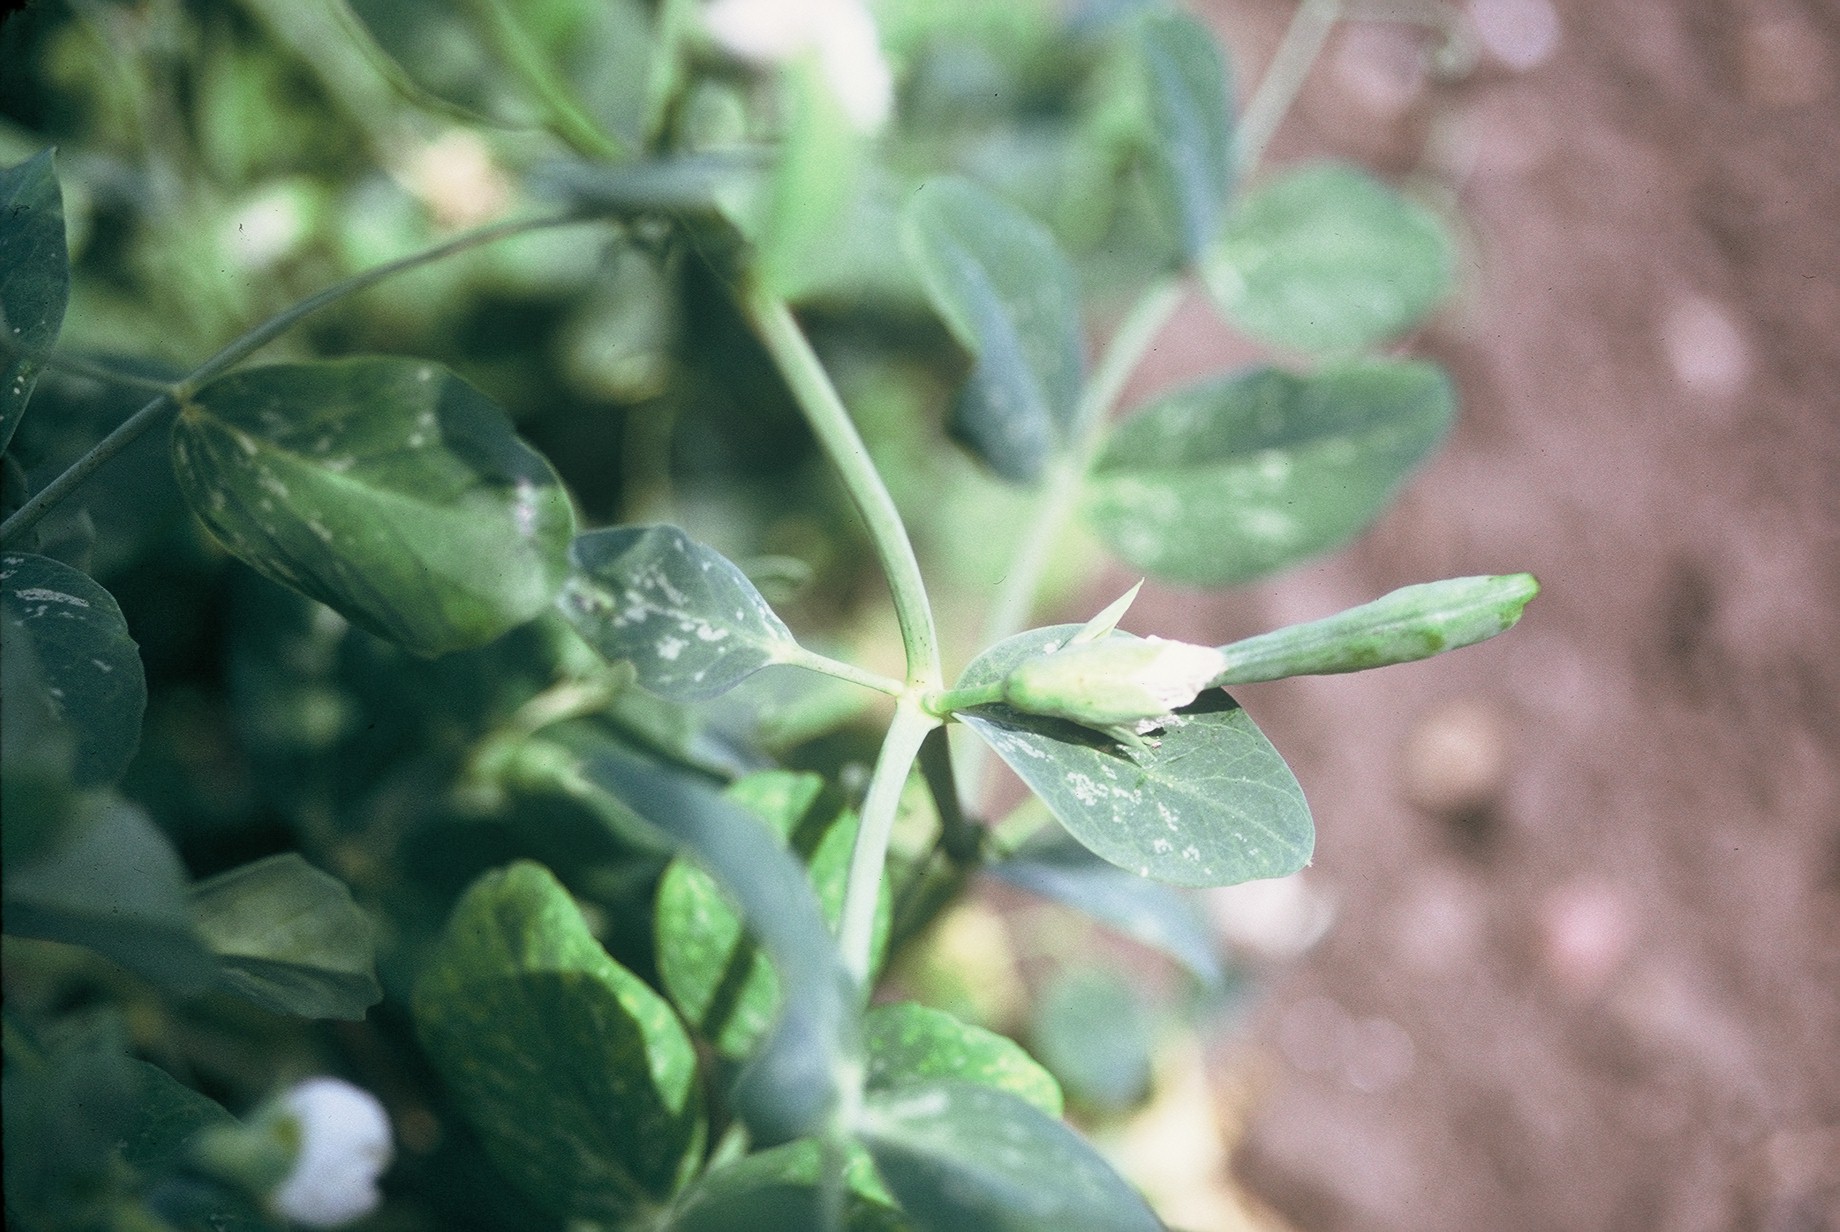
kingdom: Plantae
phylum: Tracheophyta
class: Magnoliopsida
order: Fabales
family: Fabaceae
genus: Lathyrus
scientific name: Lathyrus oleraceus
